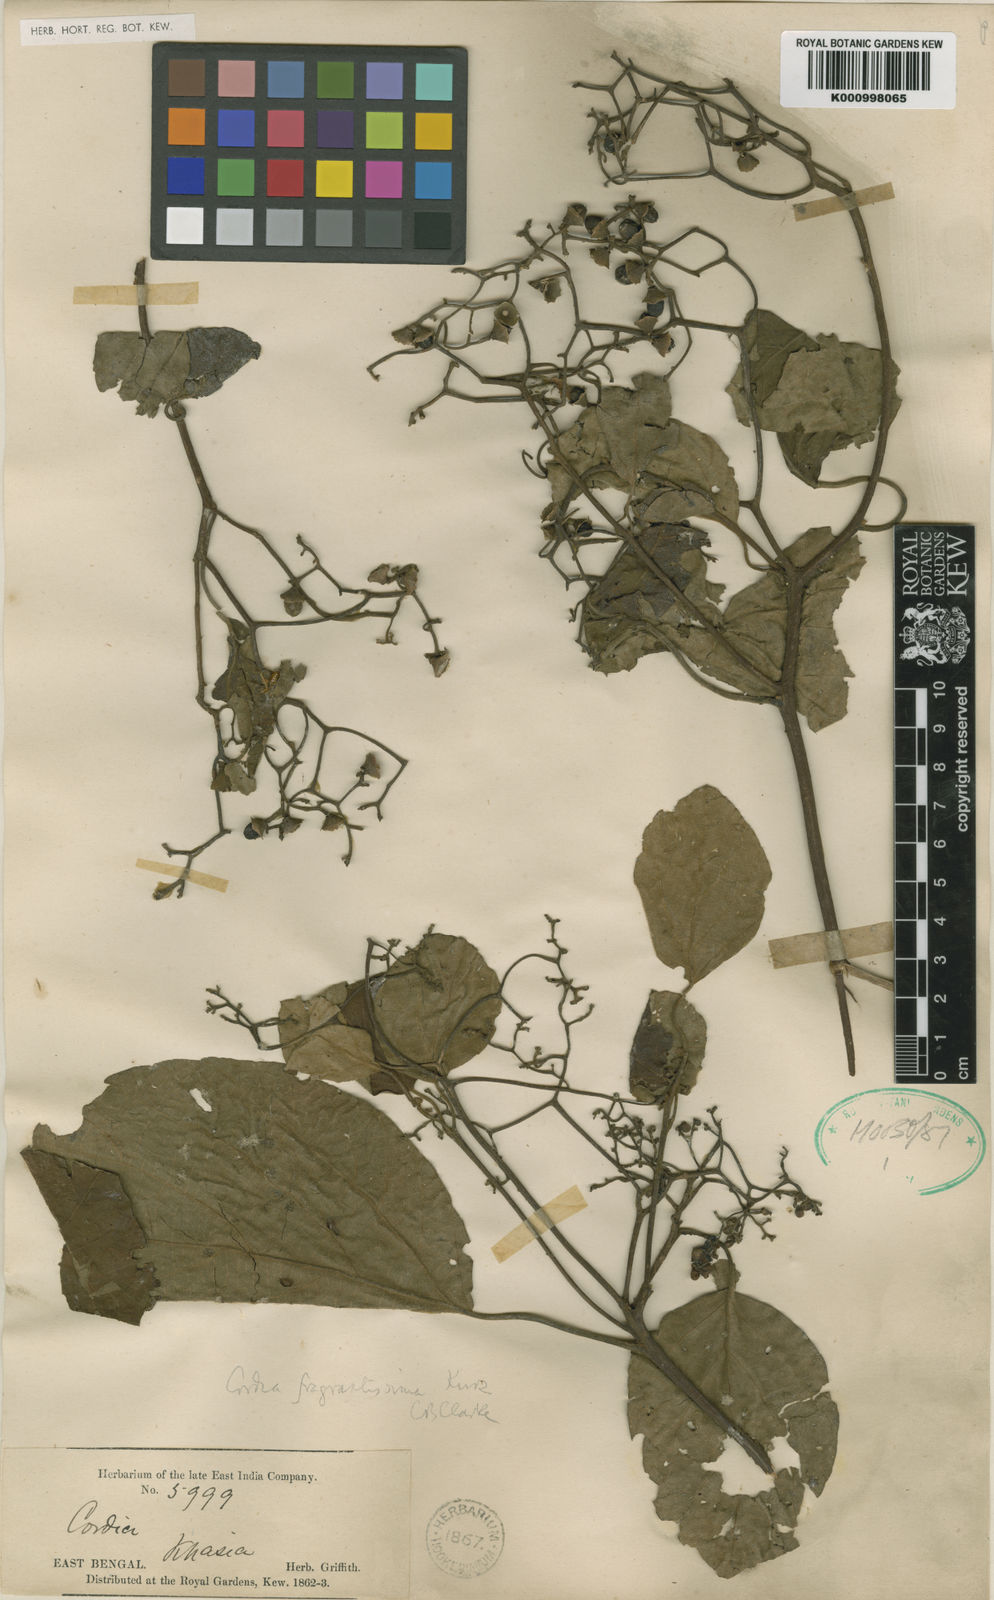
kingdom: Plantae
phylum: Tracheophyta
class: Magnoliopsida
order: Boraginales
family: Cordiaceae
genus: Cordia
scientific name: Cordia fragrantissima
